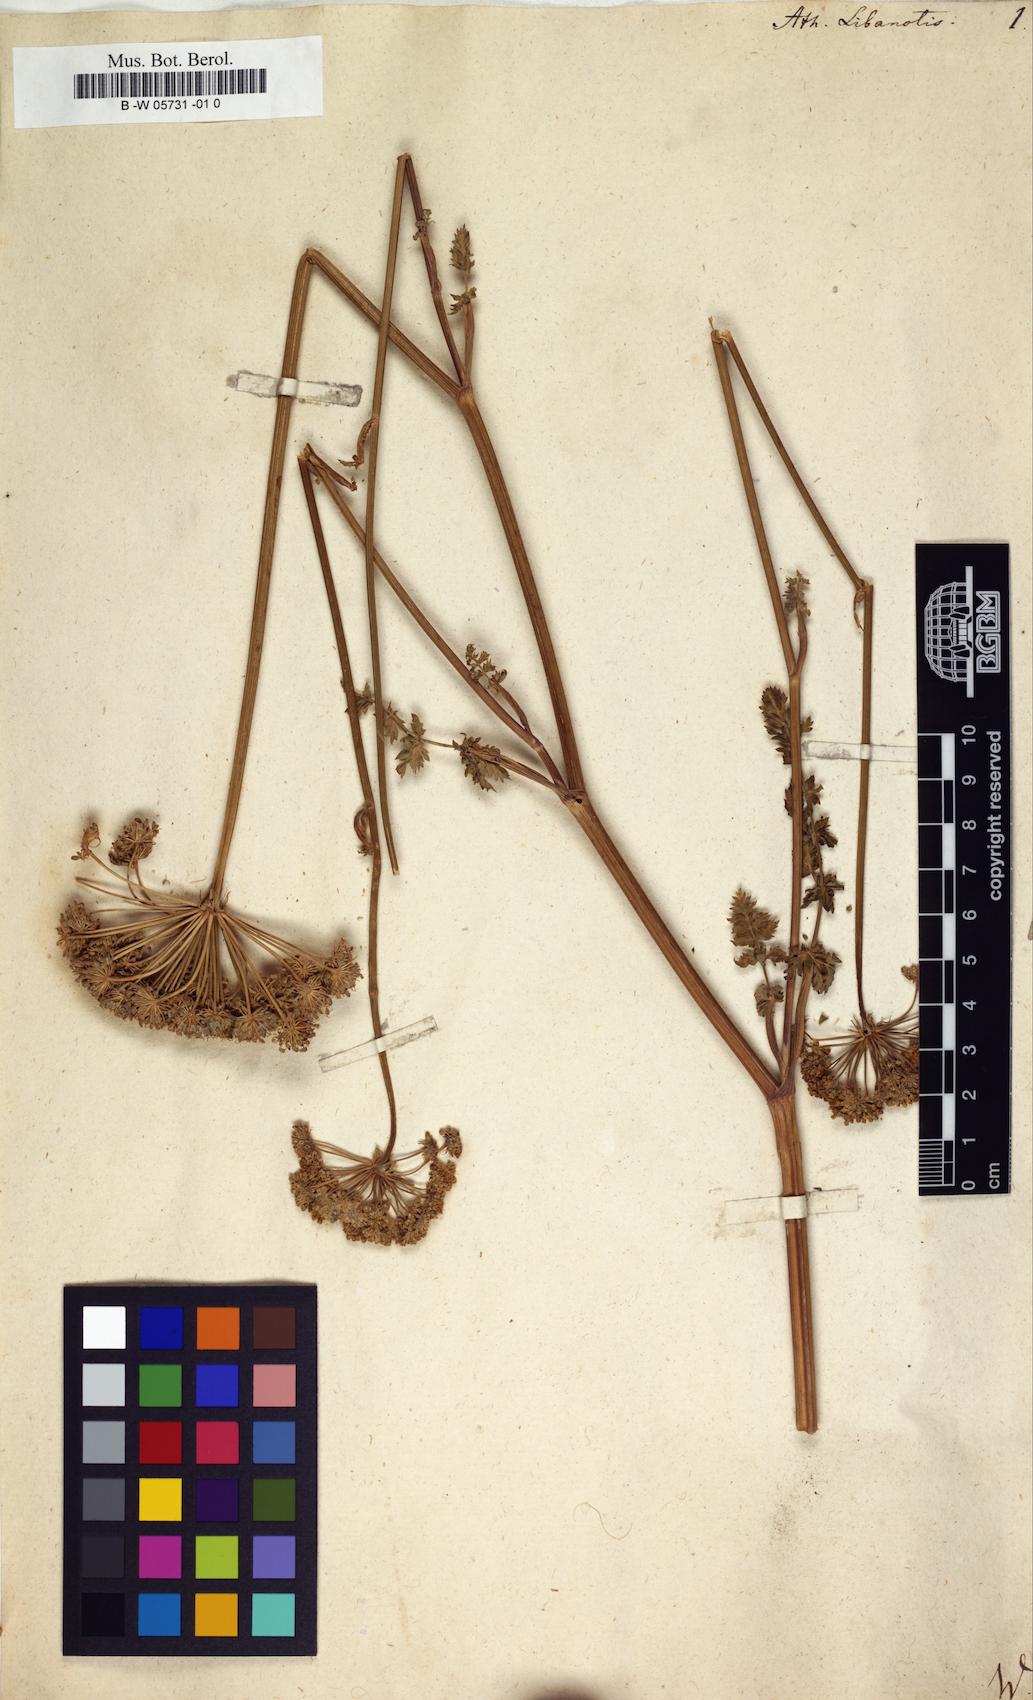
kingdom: Plantae
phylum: Tracheophyta
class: Magnoliopsida
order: Apiales
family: Apiaceae
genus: Seseli
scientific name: Seseli libanotis
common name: Mooncarrot
